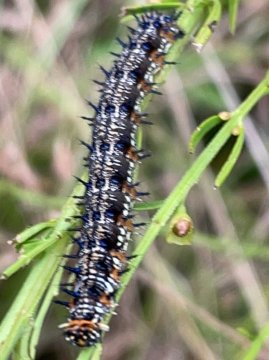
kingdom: Animalia
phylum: Arthropoda
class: Insecta
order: Lepidoptera
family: Nymphalidae
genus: Junonia
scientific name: Junonia coenia
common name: Common Buckeye
